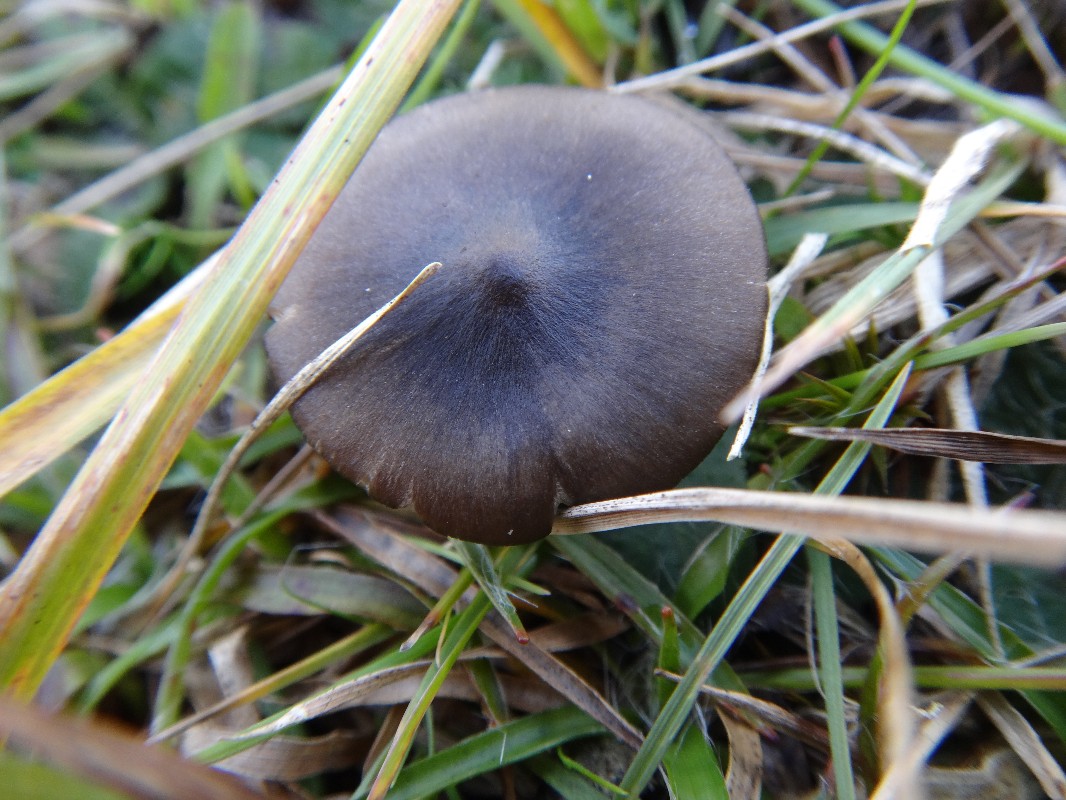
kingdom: Fungi
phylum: Basidiomycota
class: Agaricomycetes
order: Agaricales
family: Entolomataceae
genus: Entoloma
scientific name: Entoloma sericeum
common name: silkeglinsende rødblad
